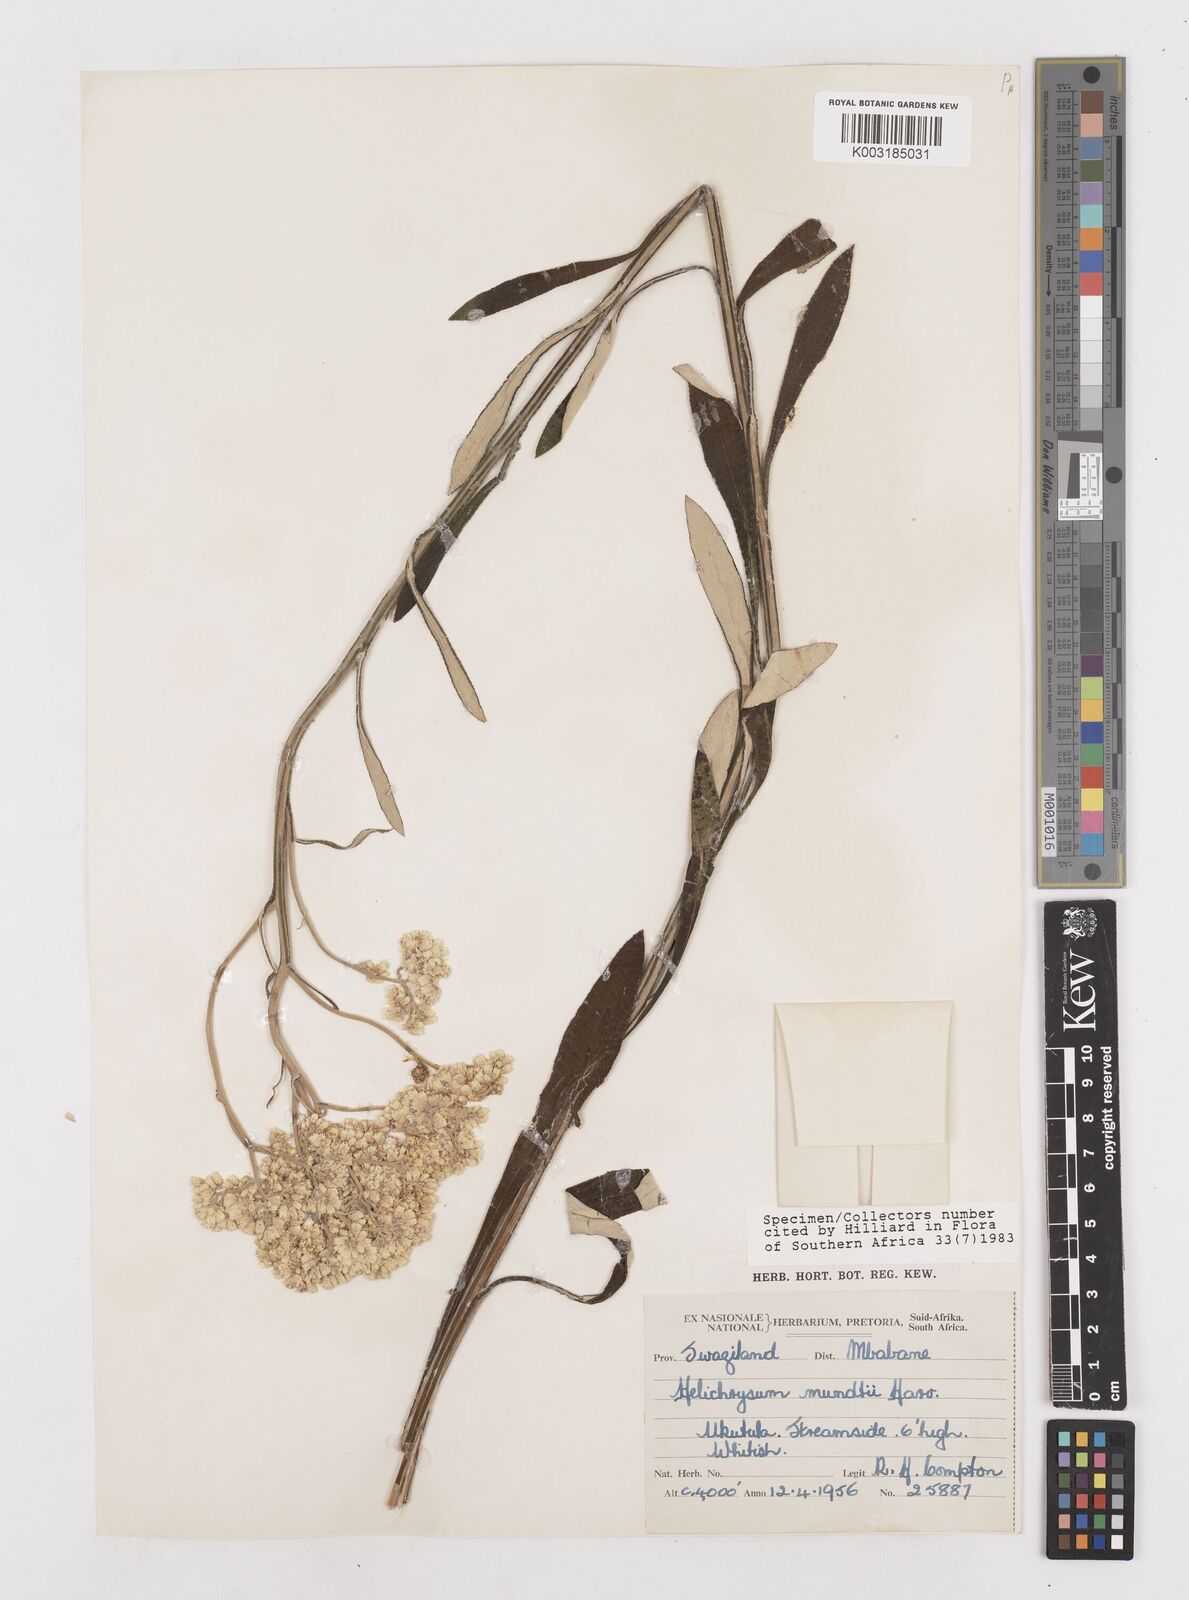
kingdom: Plantae
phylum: Tracheophyta
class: Magnoliopsida
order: Asterales
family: Asteraceae
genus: Helichrysum
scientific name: Helichrysum mundii
